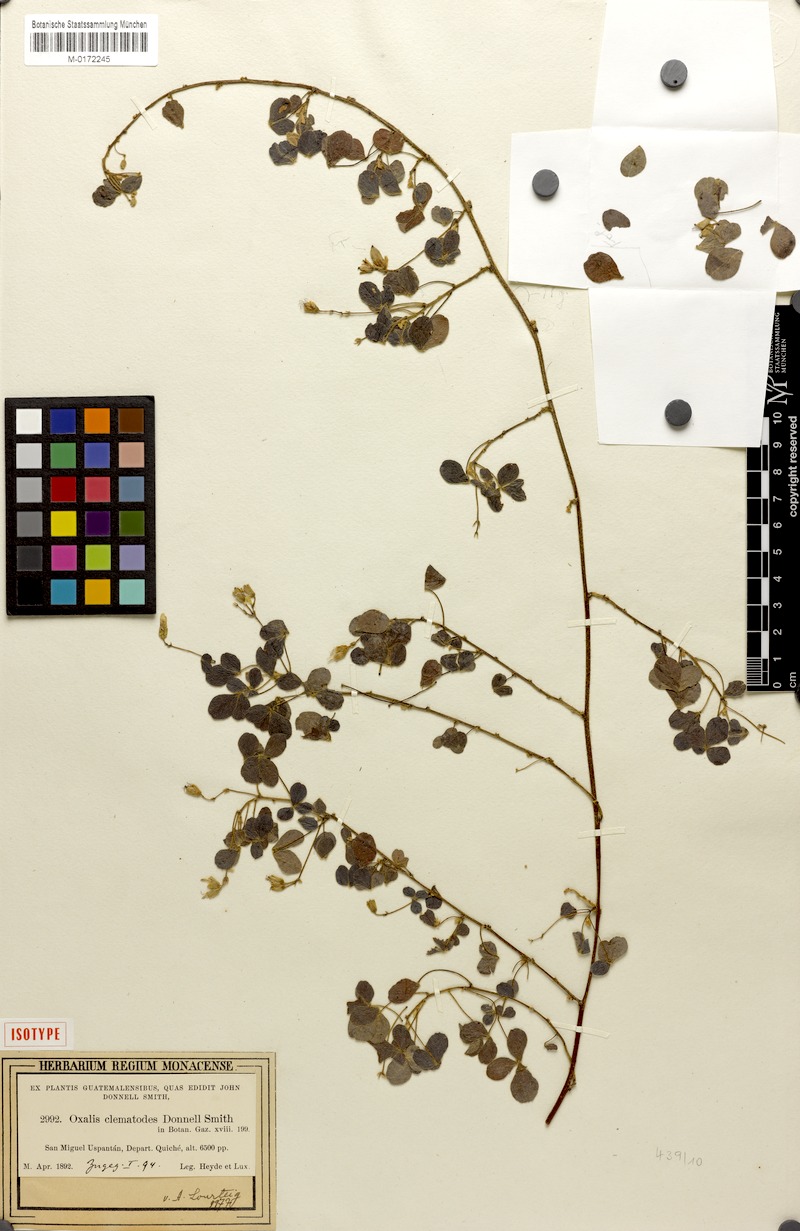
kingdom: Plantae
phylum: Tracheophyta
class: Magnoliopsida
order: Oxalidales
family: Oxalidaceae
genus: Oxalis
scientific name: Oxalis clematodes
